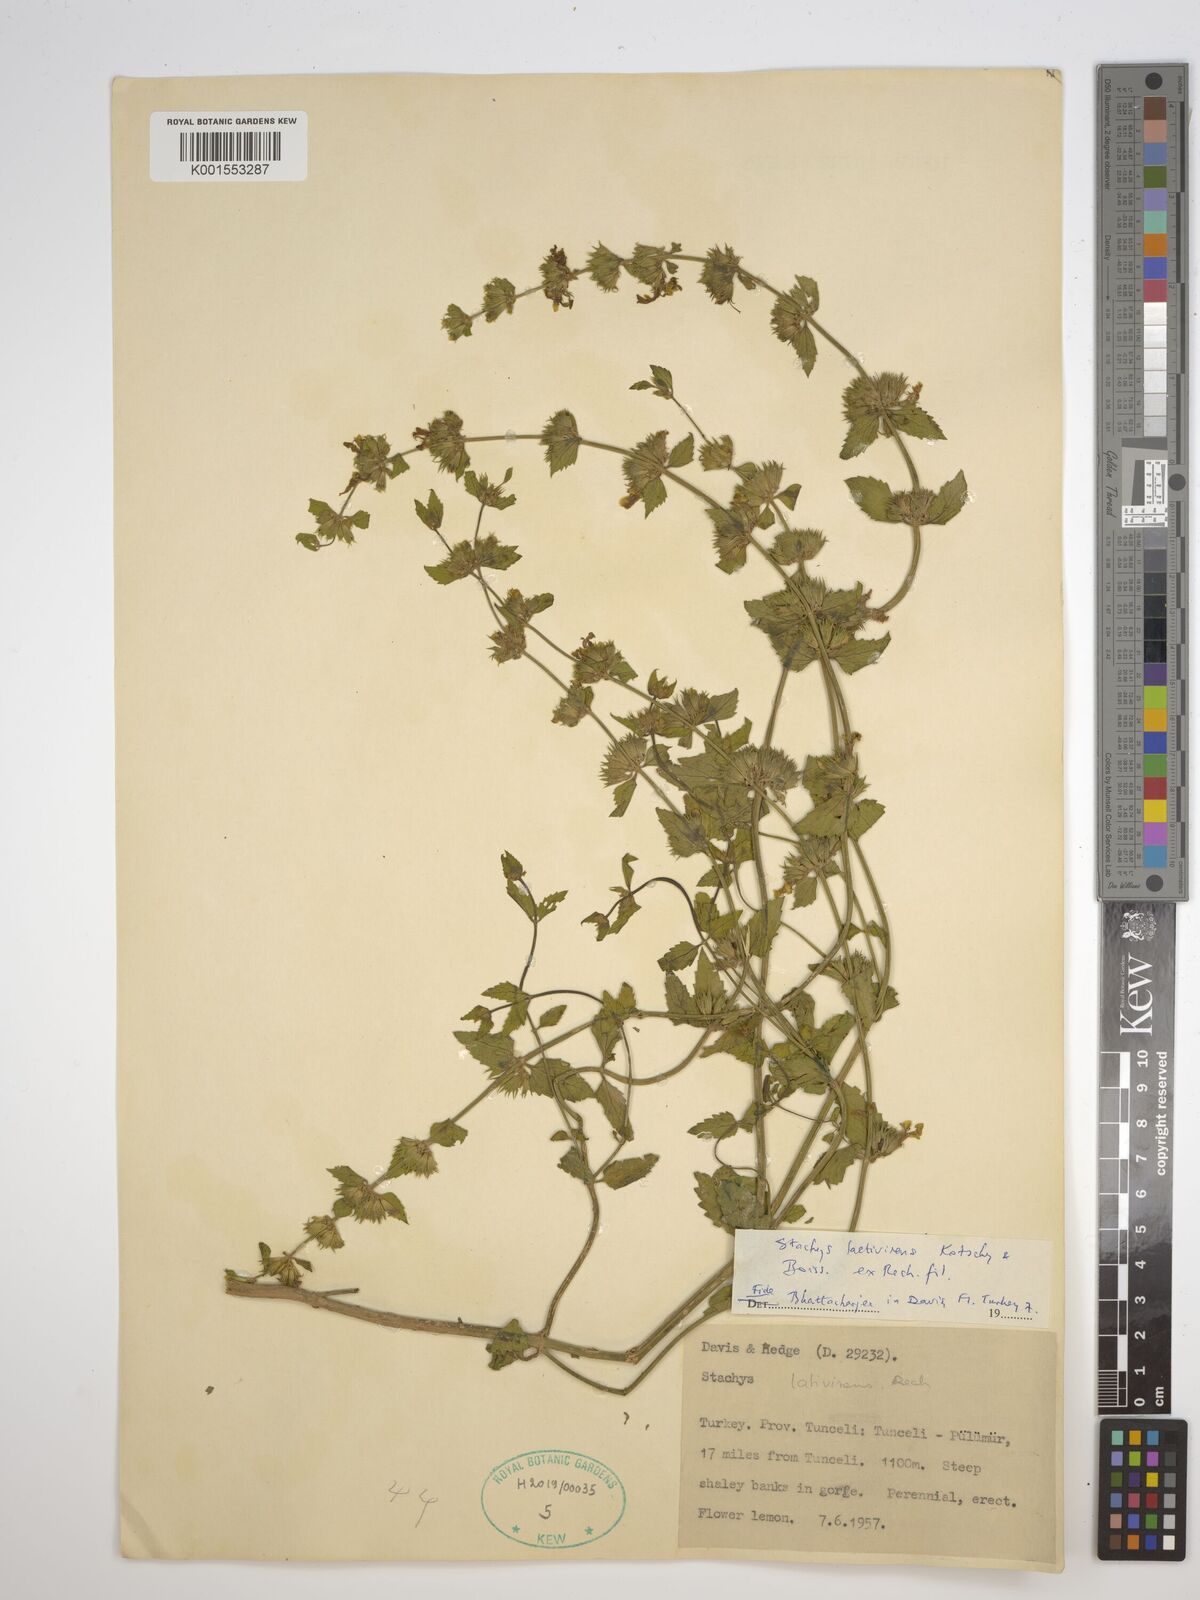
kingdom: Plantae
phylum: Tracheophyta
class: Magnoliopsida
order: Lamiales
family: Lamiaceae
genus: Stachys
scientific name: Stachys viscosa
